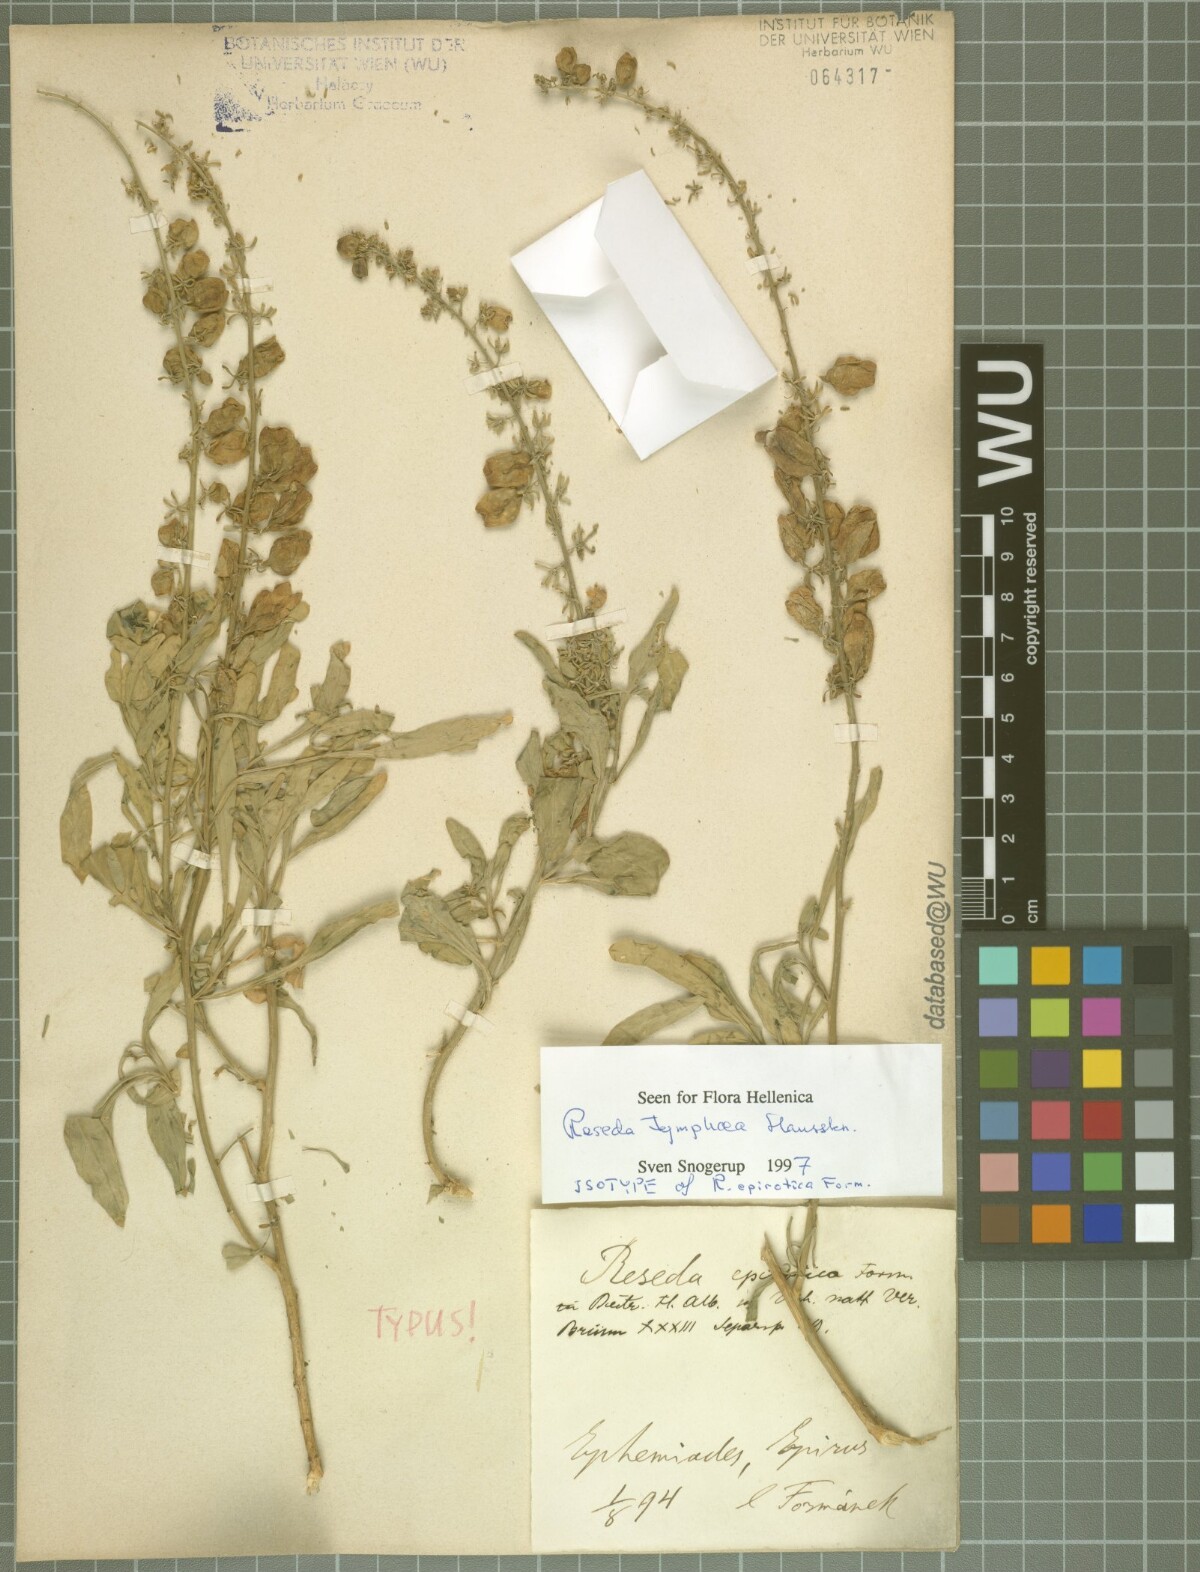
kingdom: Plantae
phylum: Tracheophyta
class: Magnoliopsida
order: Brassicales
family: Resedaceae
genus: Reseda
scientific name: Reseda tymphaea
